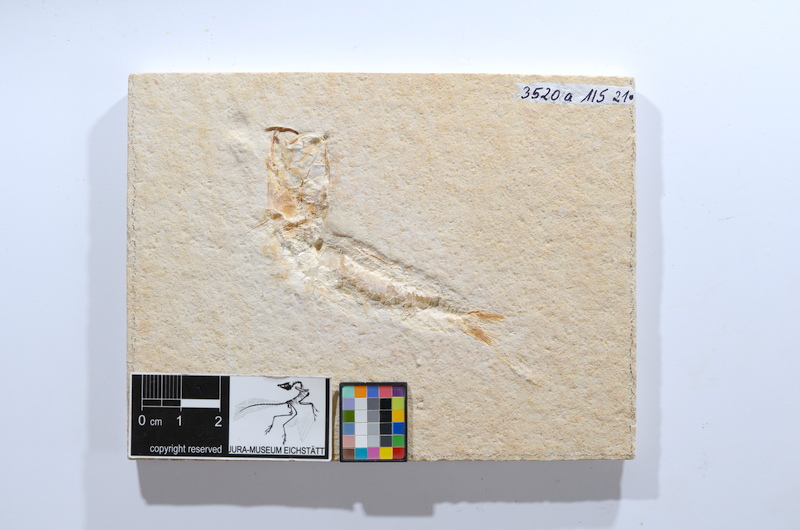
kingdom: Animalia
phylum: Chordata
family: Ascalaboidae
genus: Tharsis
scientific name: Tharsis dubius
